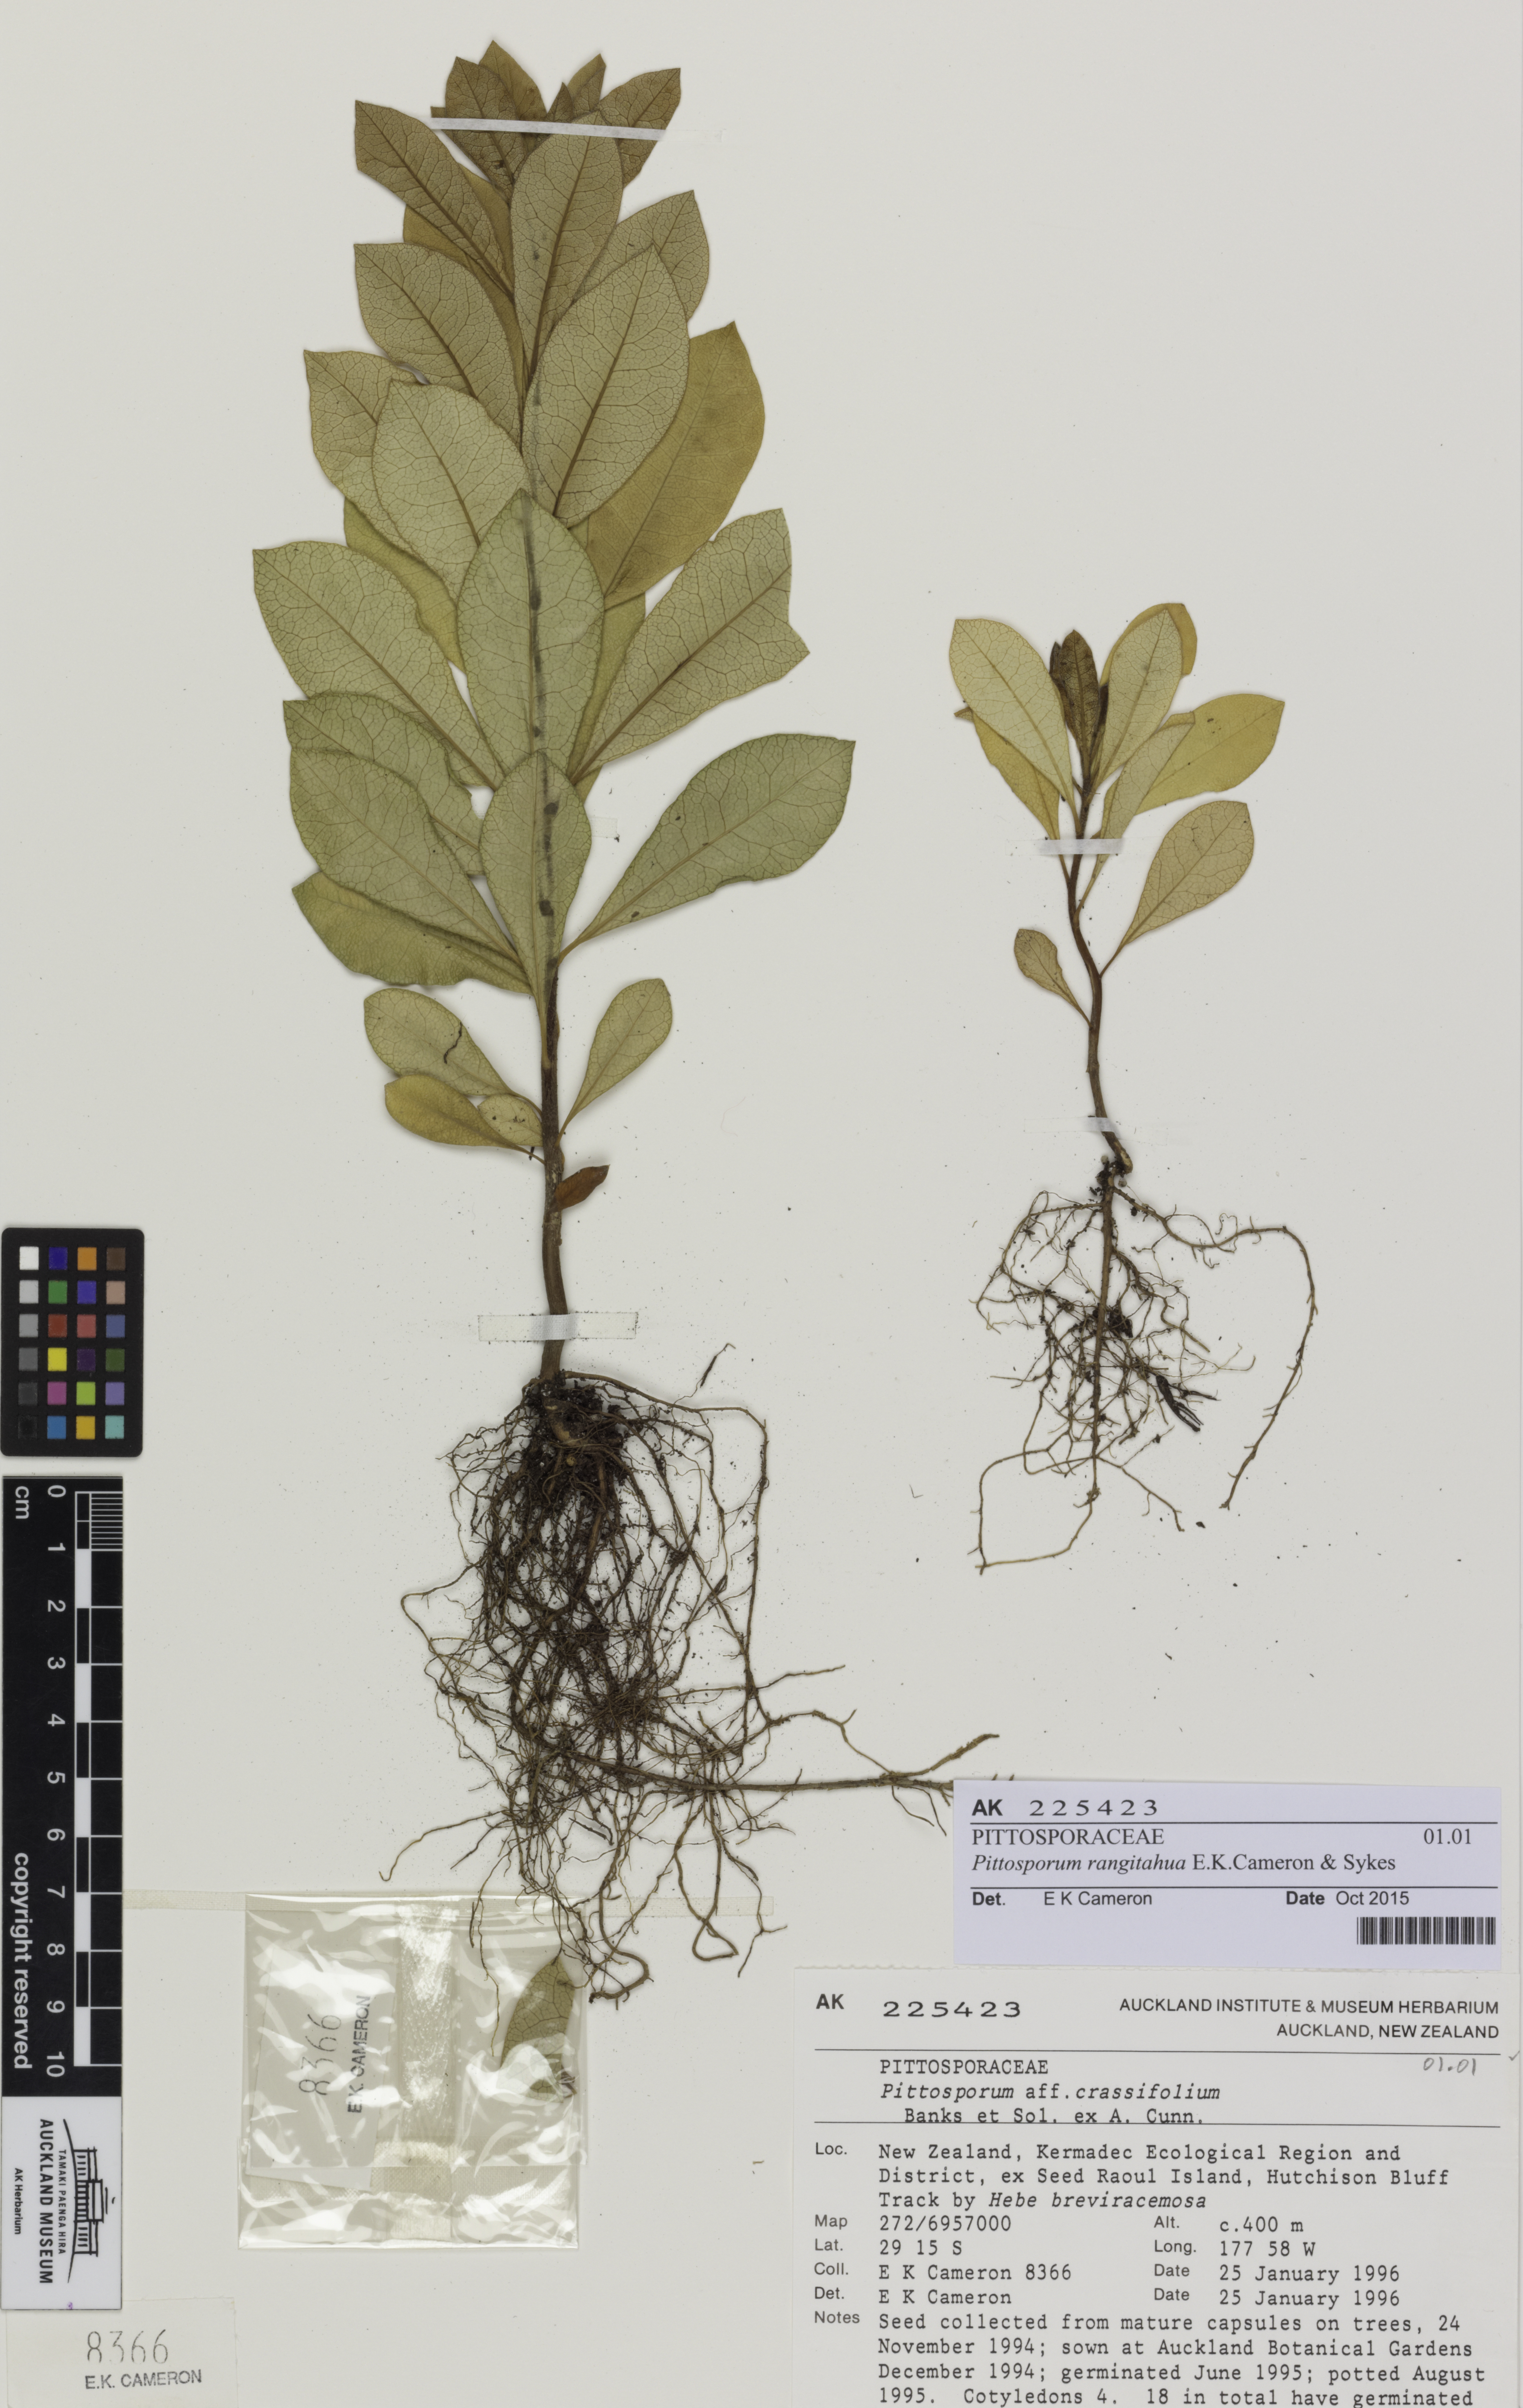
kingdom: Plantae
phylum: Tracheophyta
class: Magnoliopsida
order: Apiales
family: Pittosporaceae
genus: Pittosporum
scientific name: Pittosporum rangitahua
